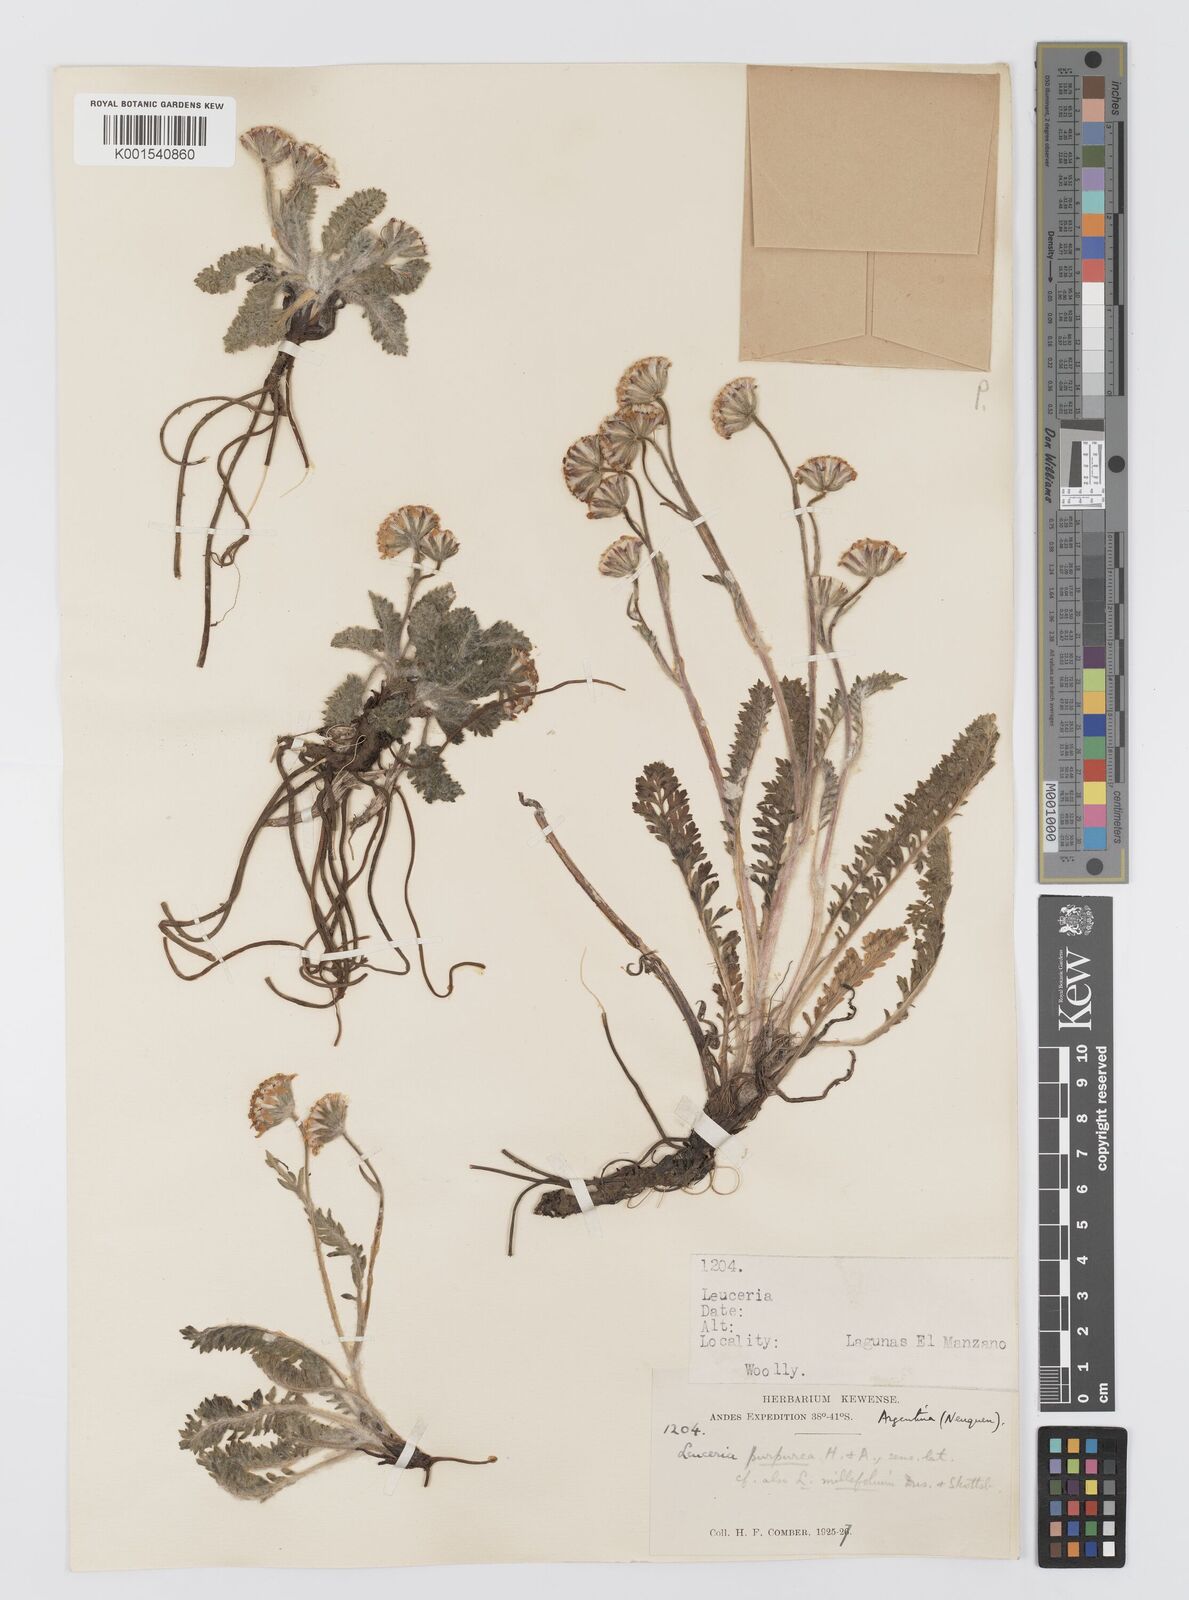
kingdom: Plantae
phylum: Tracheophyta
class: Magnoliopsida
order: Asterales
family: Asteraceae
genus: Leucheria
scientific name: Leucheria millefolium
